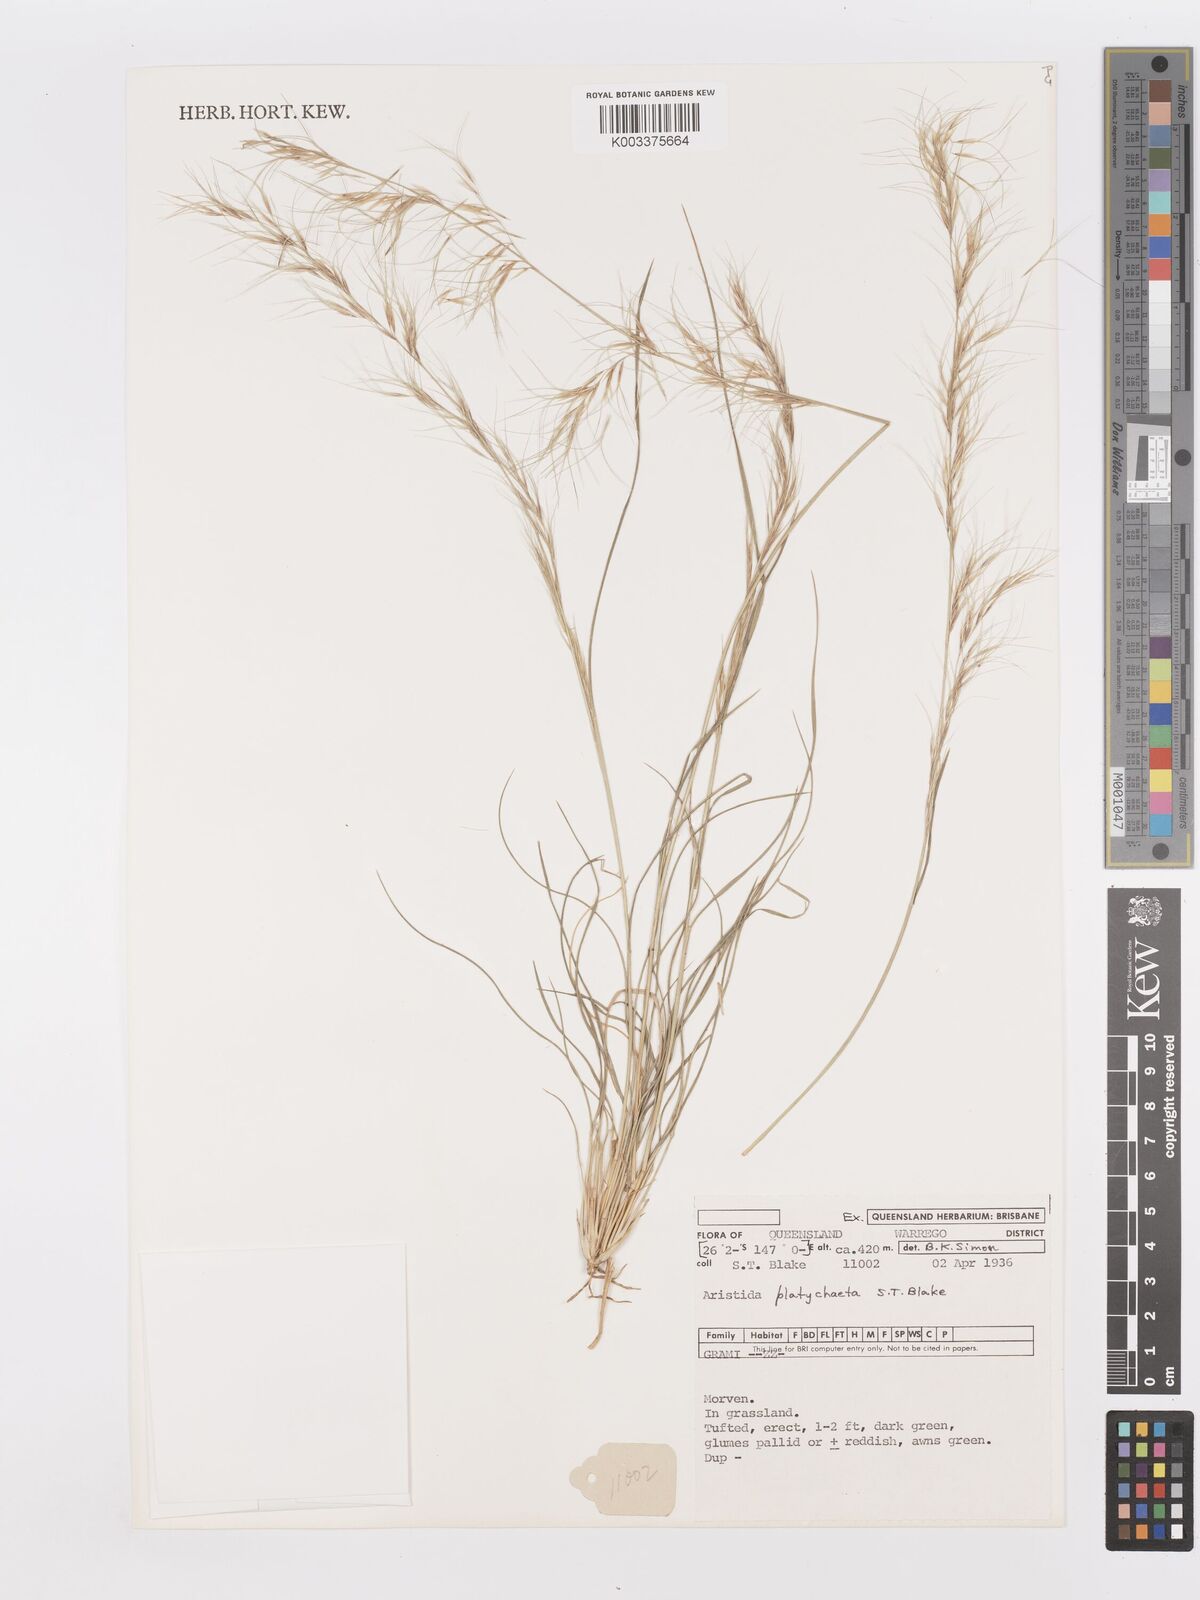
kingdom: Plantae
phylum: Tracheophyta
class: Liliopsida
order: Poales
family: Poaceae
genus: Aristida
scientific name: Aristida platychaeta
